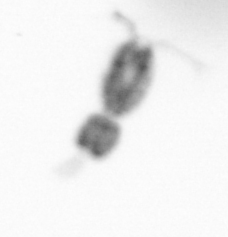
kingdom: Animalia
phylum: Arthropoda
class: Copepoda
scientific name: Copepoda
